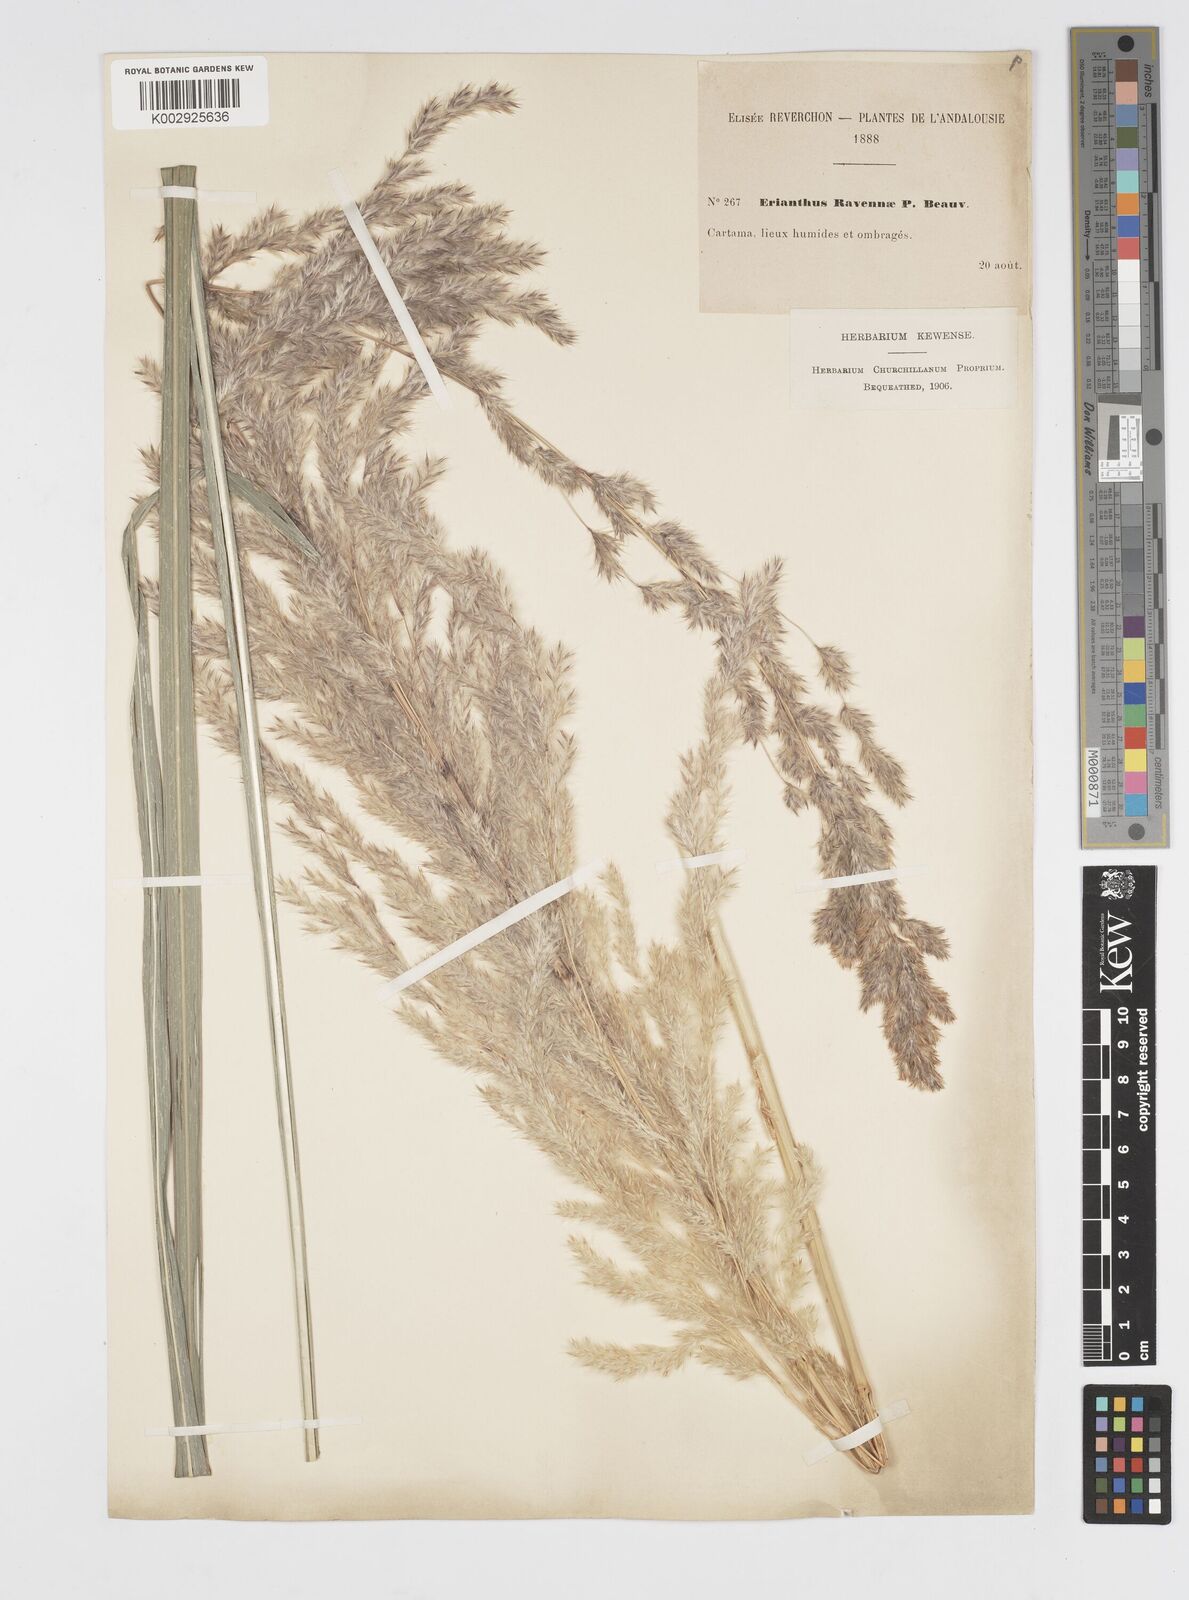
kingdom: Plantae
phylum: Tracheophyta
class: Liliopsida
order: Poales
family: Poaceae
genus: Tripidium
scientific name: Tripidium ravennae
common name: Ravenna grass
